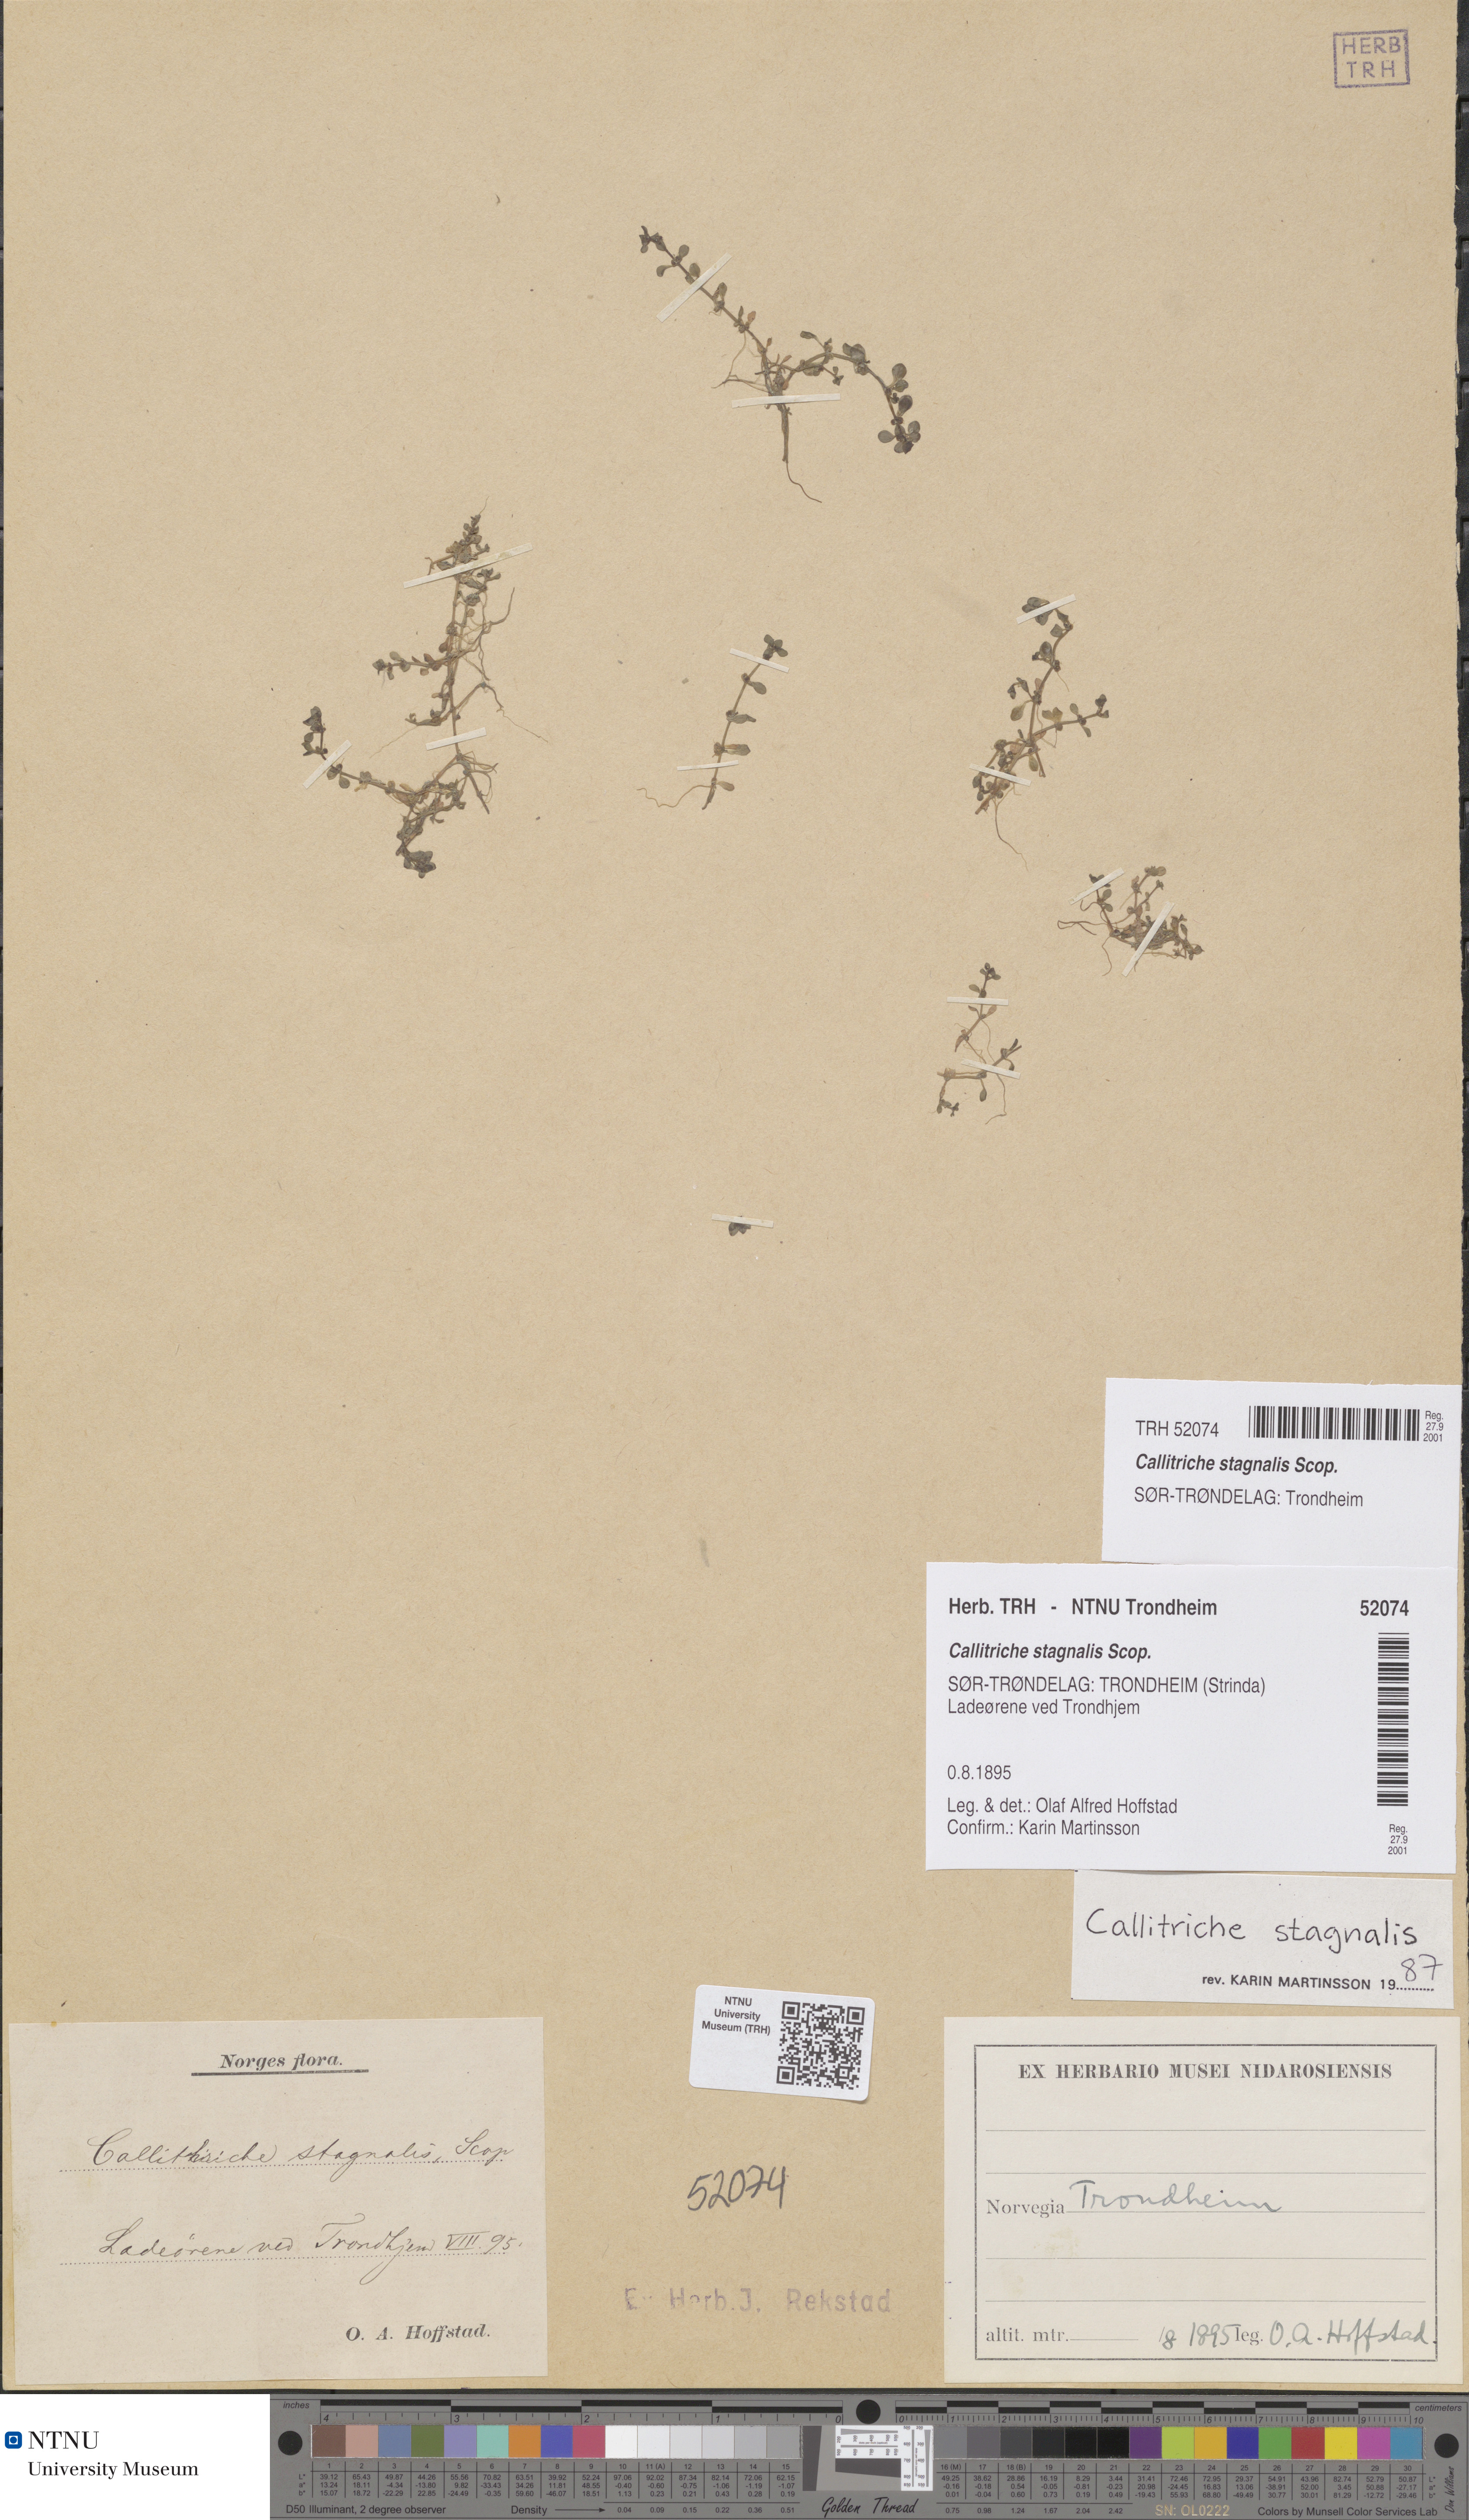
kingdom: Plantae
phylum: Tracheophyta
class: Magnoliopsida
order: Lamiales
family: Plantaginaceae
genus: Callitriche
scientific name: Callitriche stagnalis
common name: Common water-starwort
